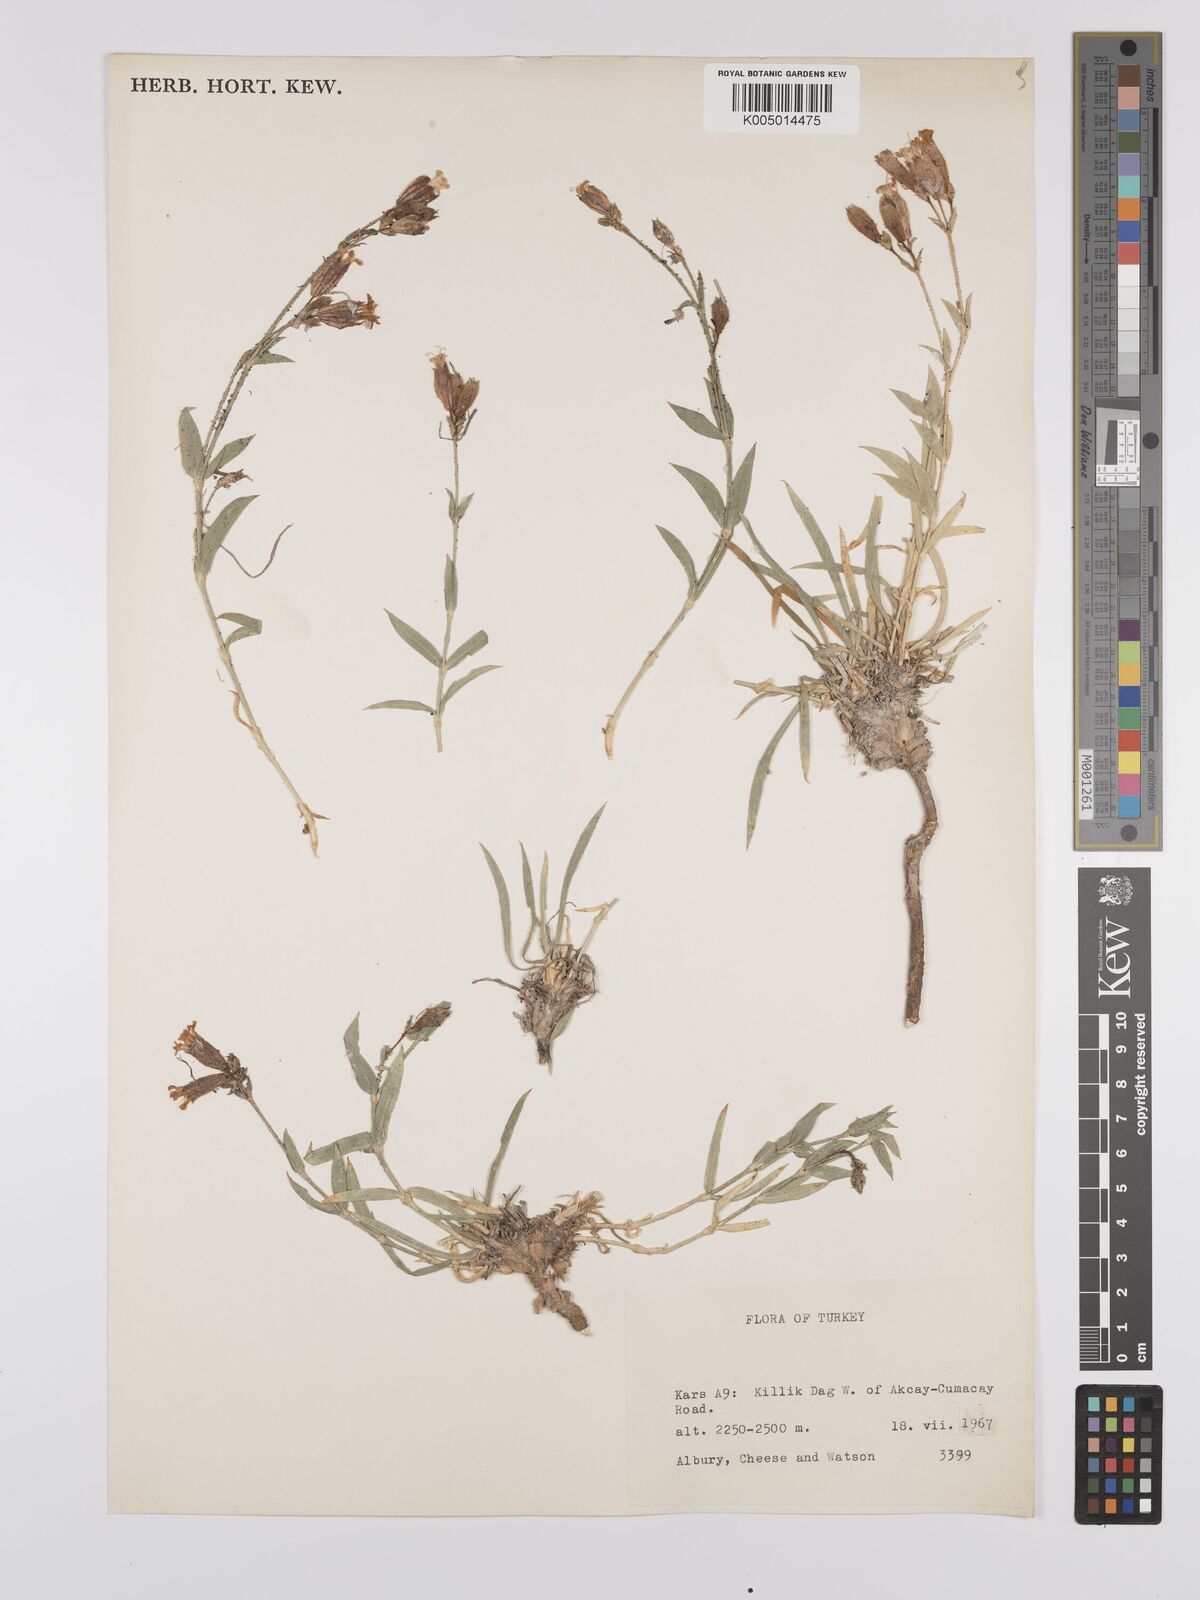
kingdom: Plantae
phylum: Tracheophyta
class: Magnoliopsida
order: Caryophyllales
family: Caryophyllaceae
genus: Silene
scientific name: Silene
